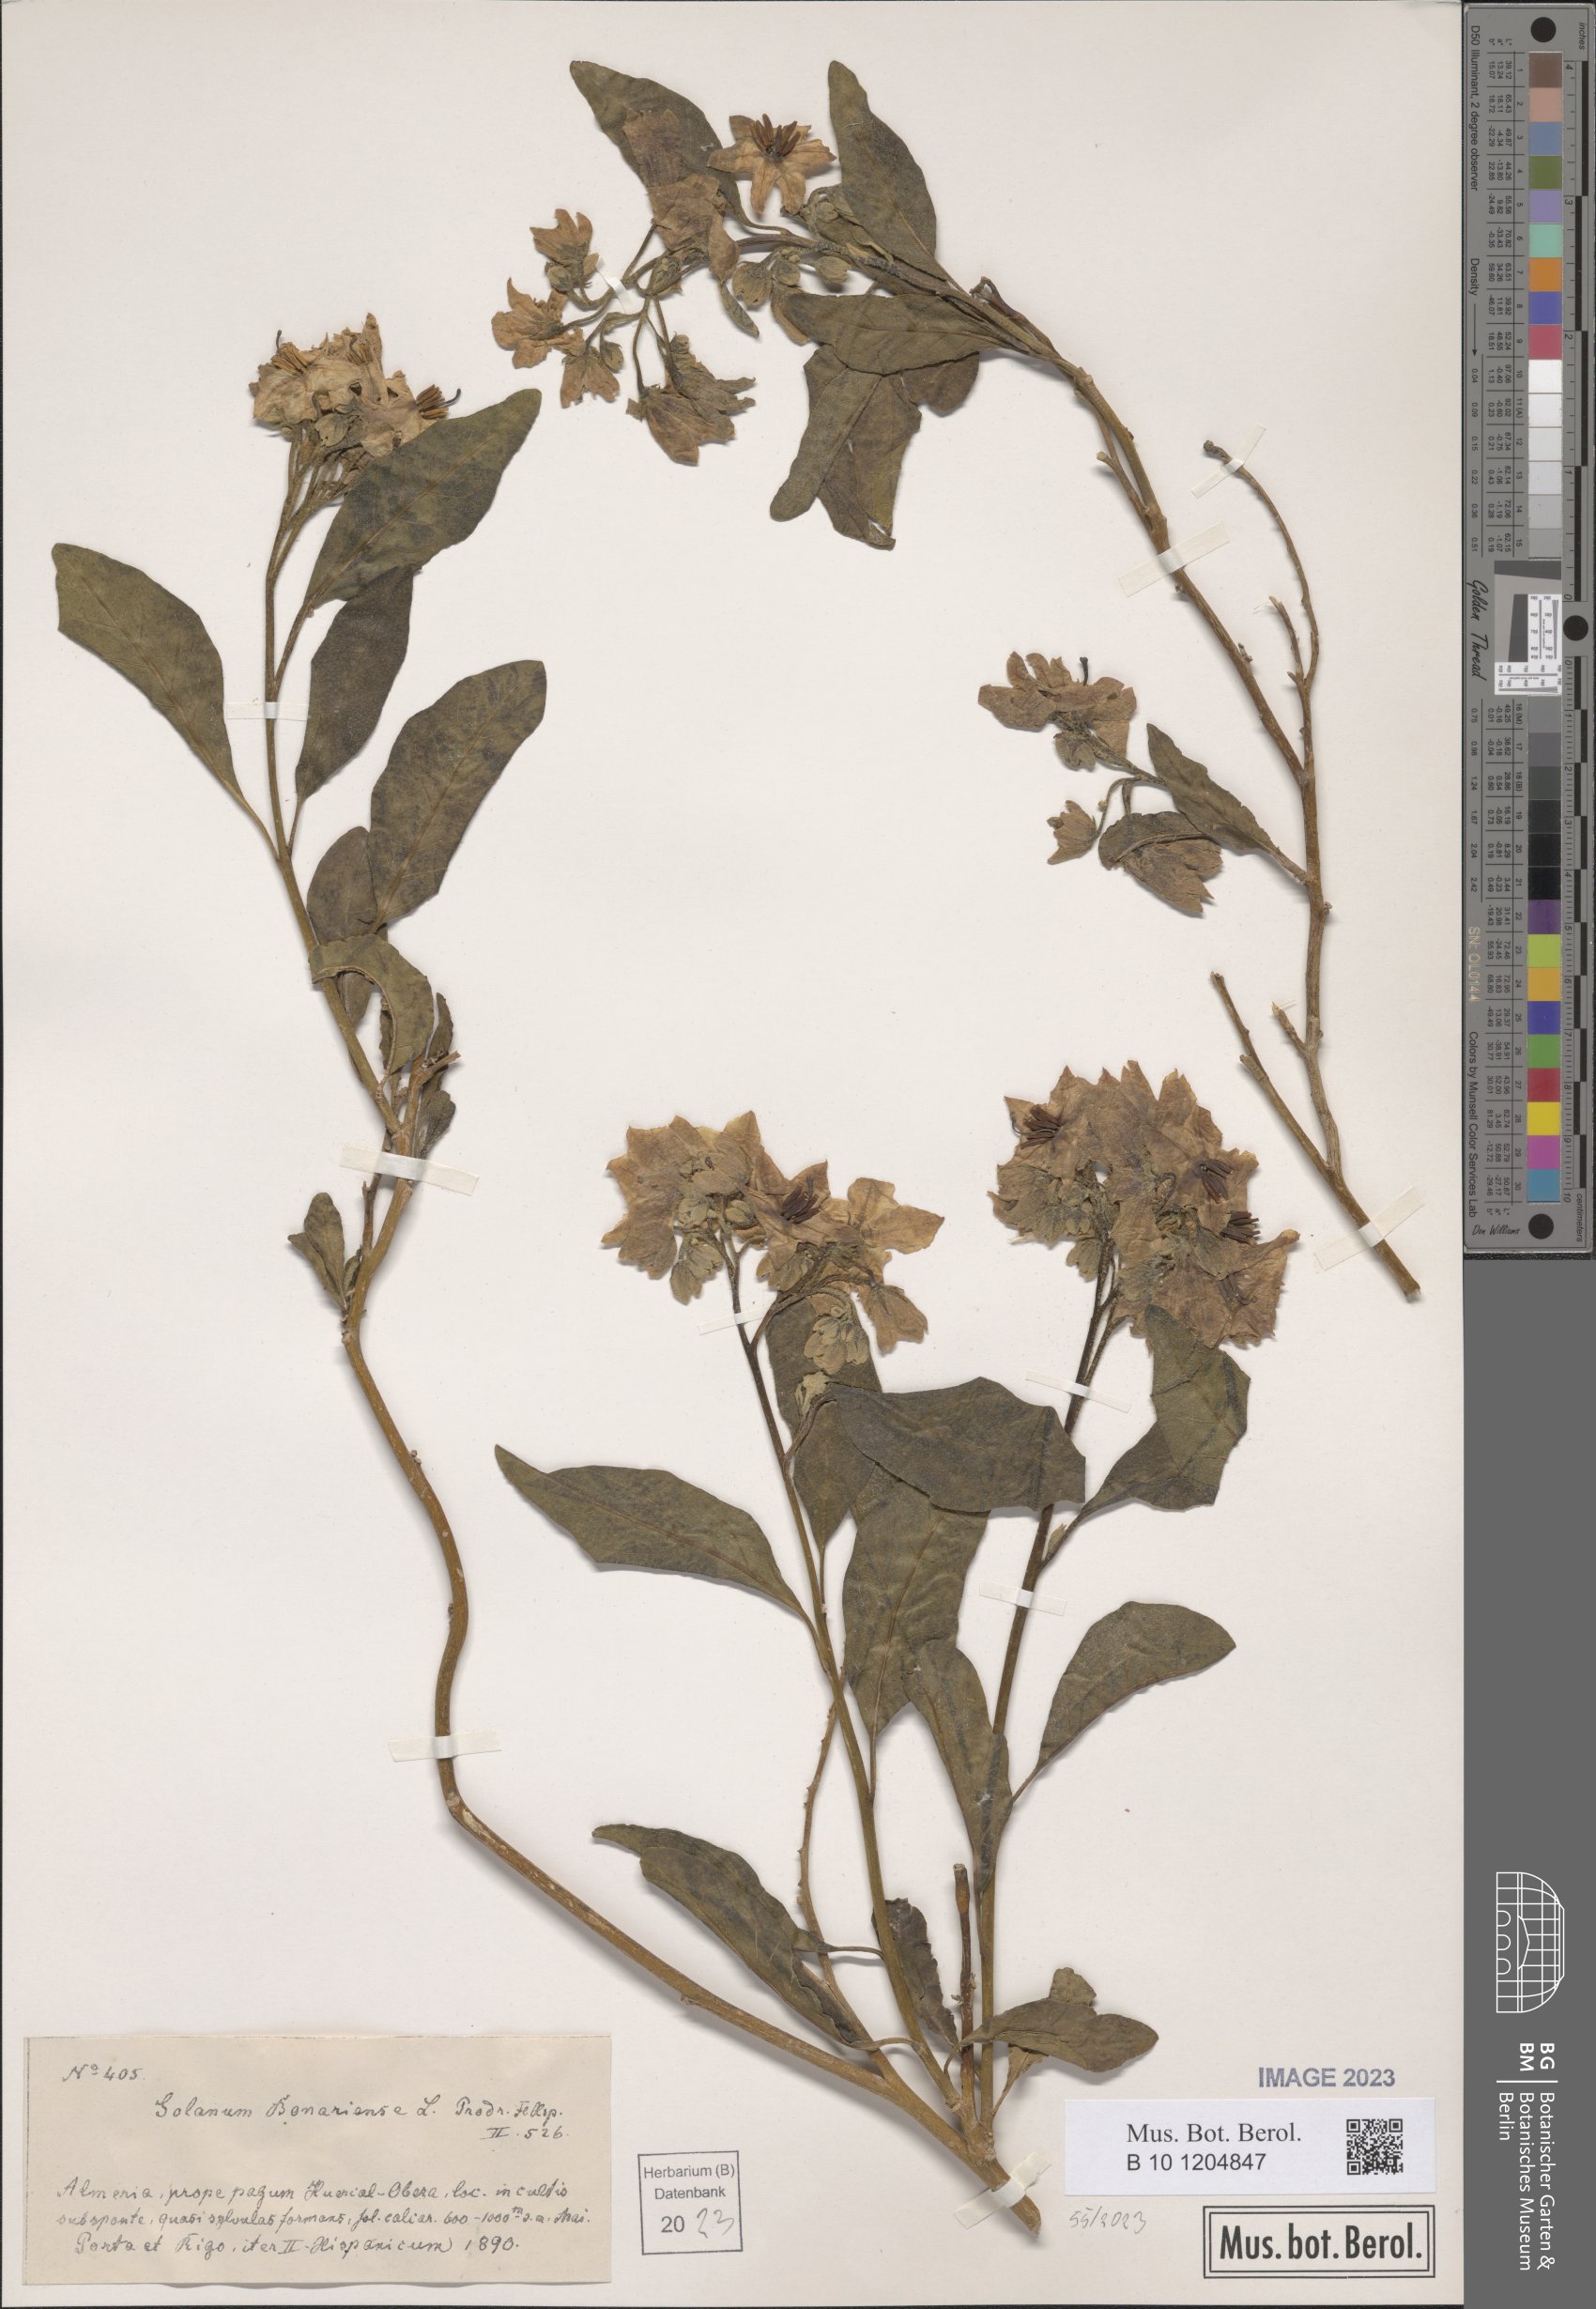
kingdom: Plantae
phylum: Tracheophyta
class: Magnoliopsida
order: Solanales
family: Solanaceae
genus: Solanum
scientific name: Solanum bonariense
